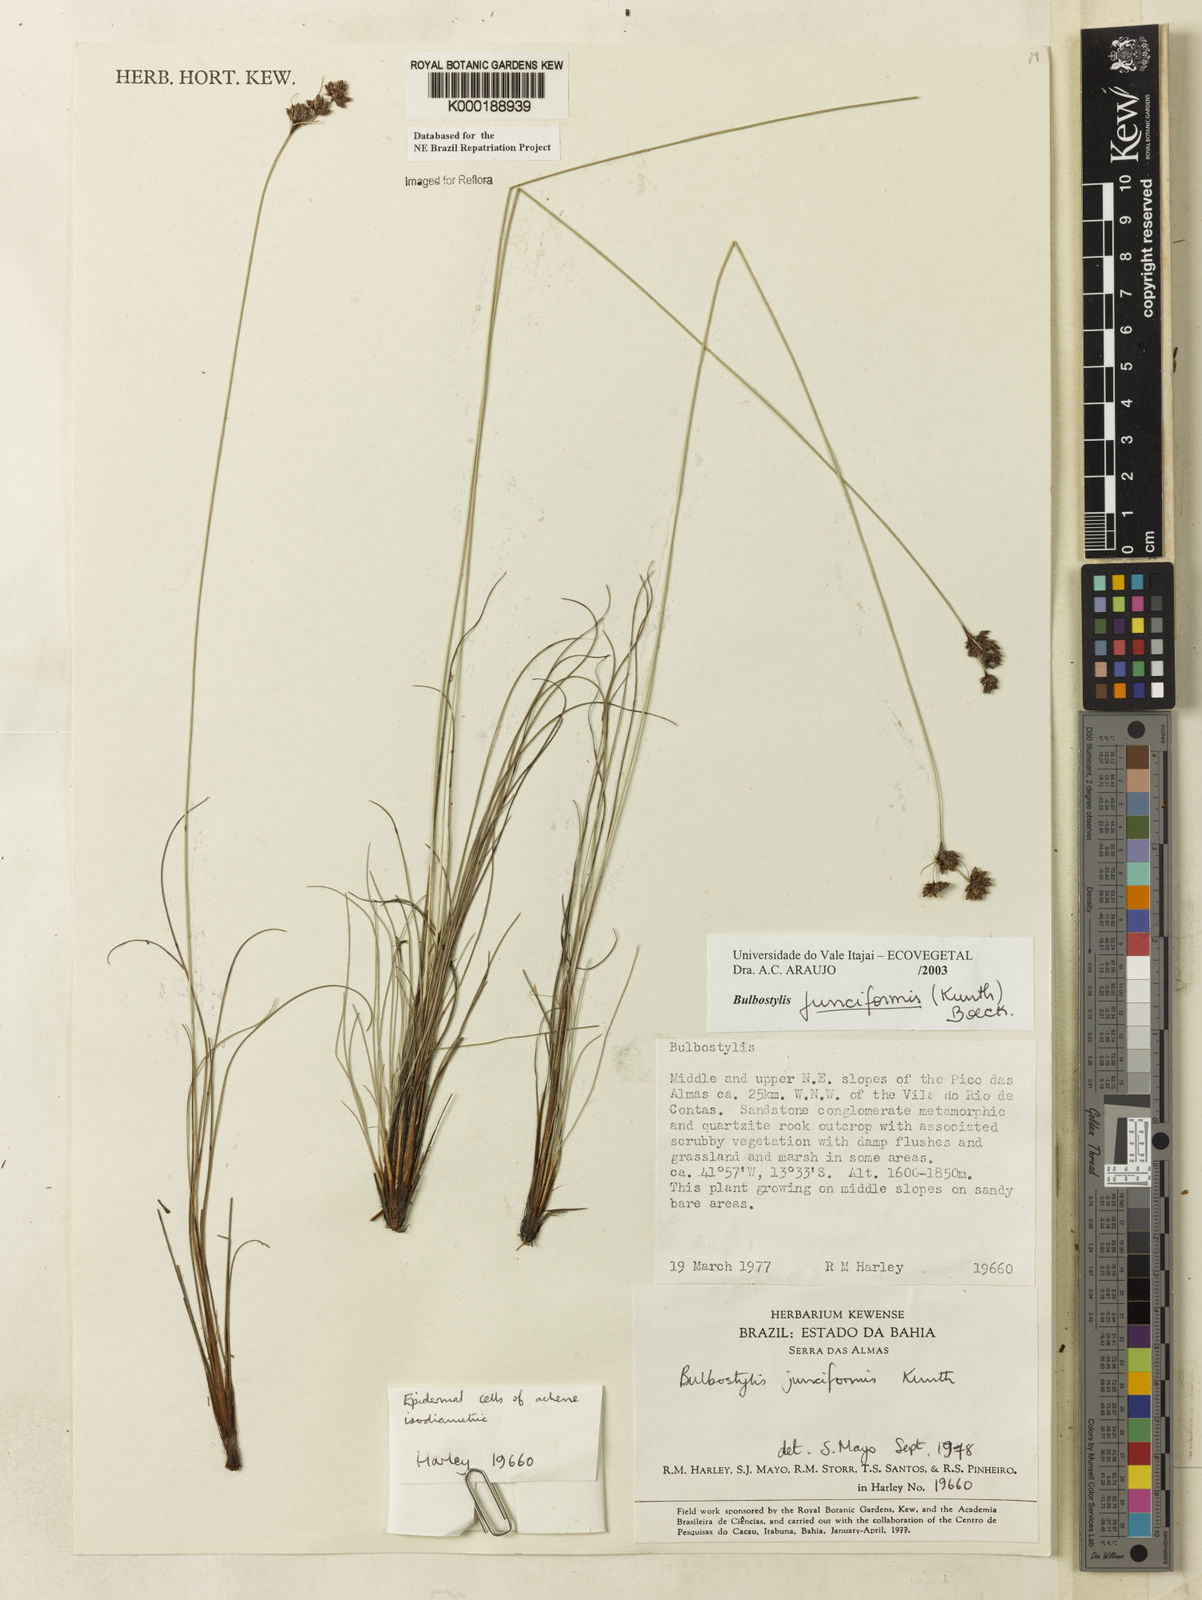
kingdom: Plantae
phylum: Tracheophyta
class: Liliopsida
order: Poales
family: Cyperaceae
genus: Bulbostylis
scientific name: Bulbostylis
